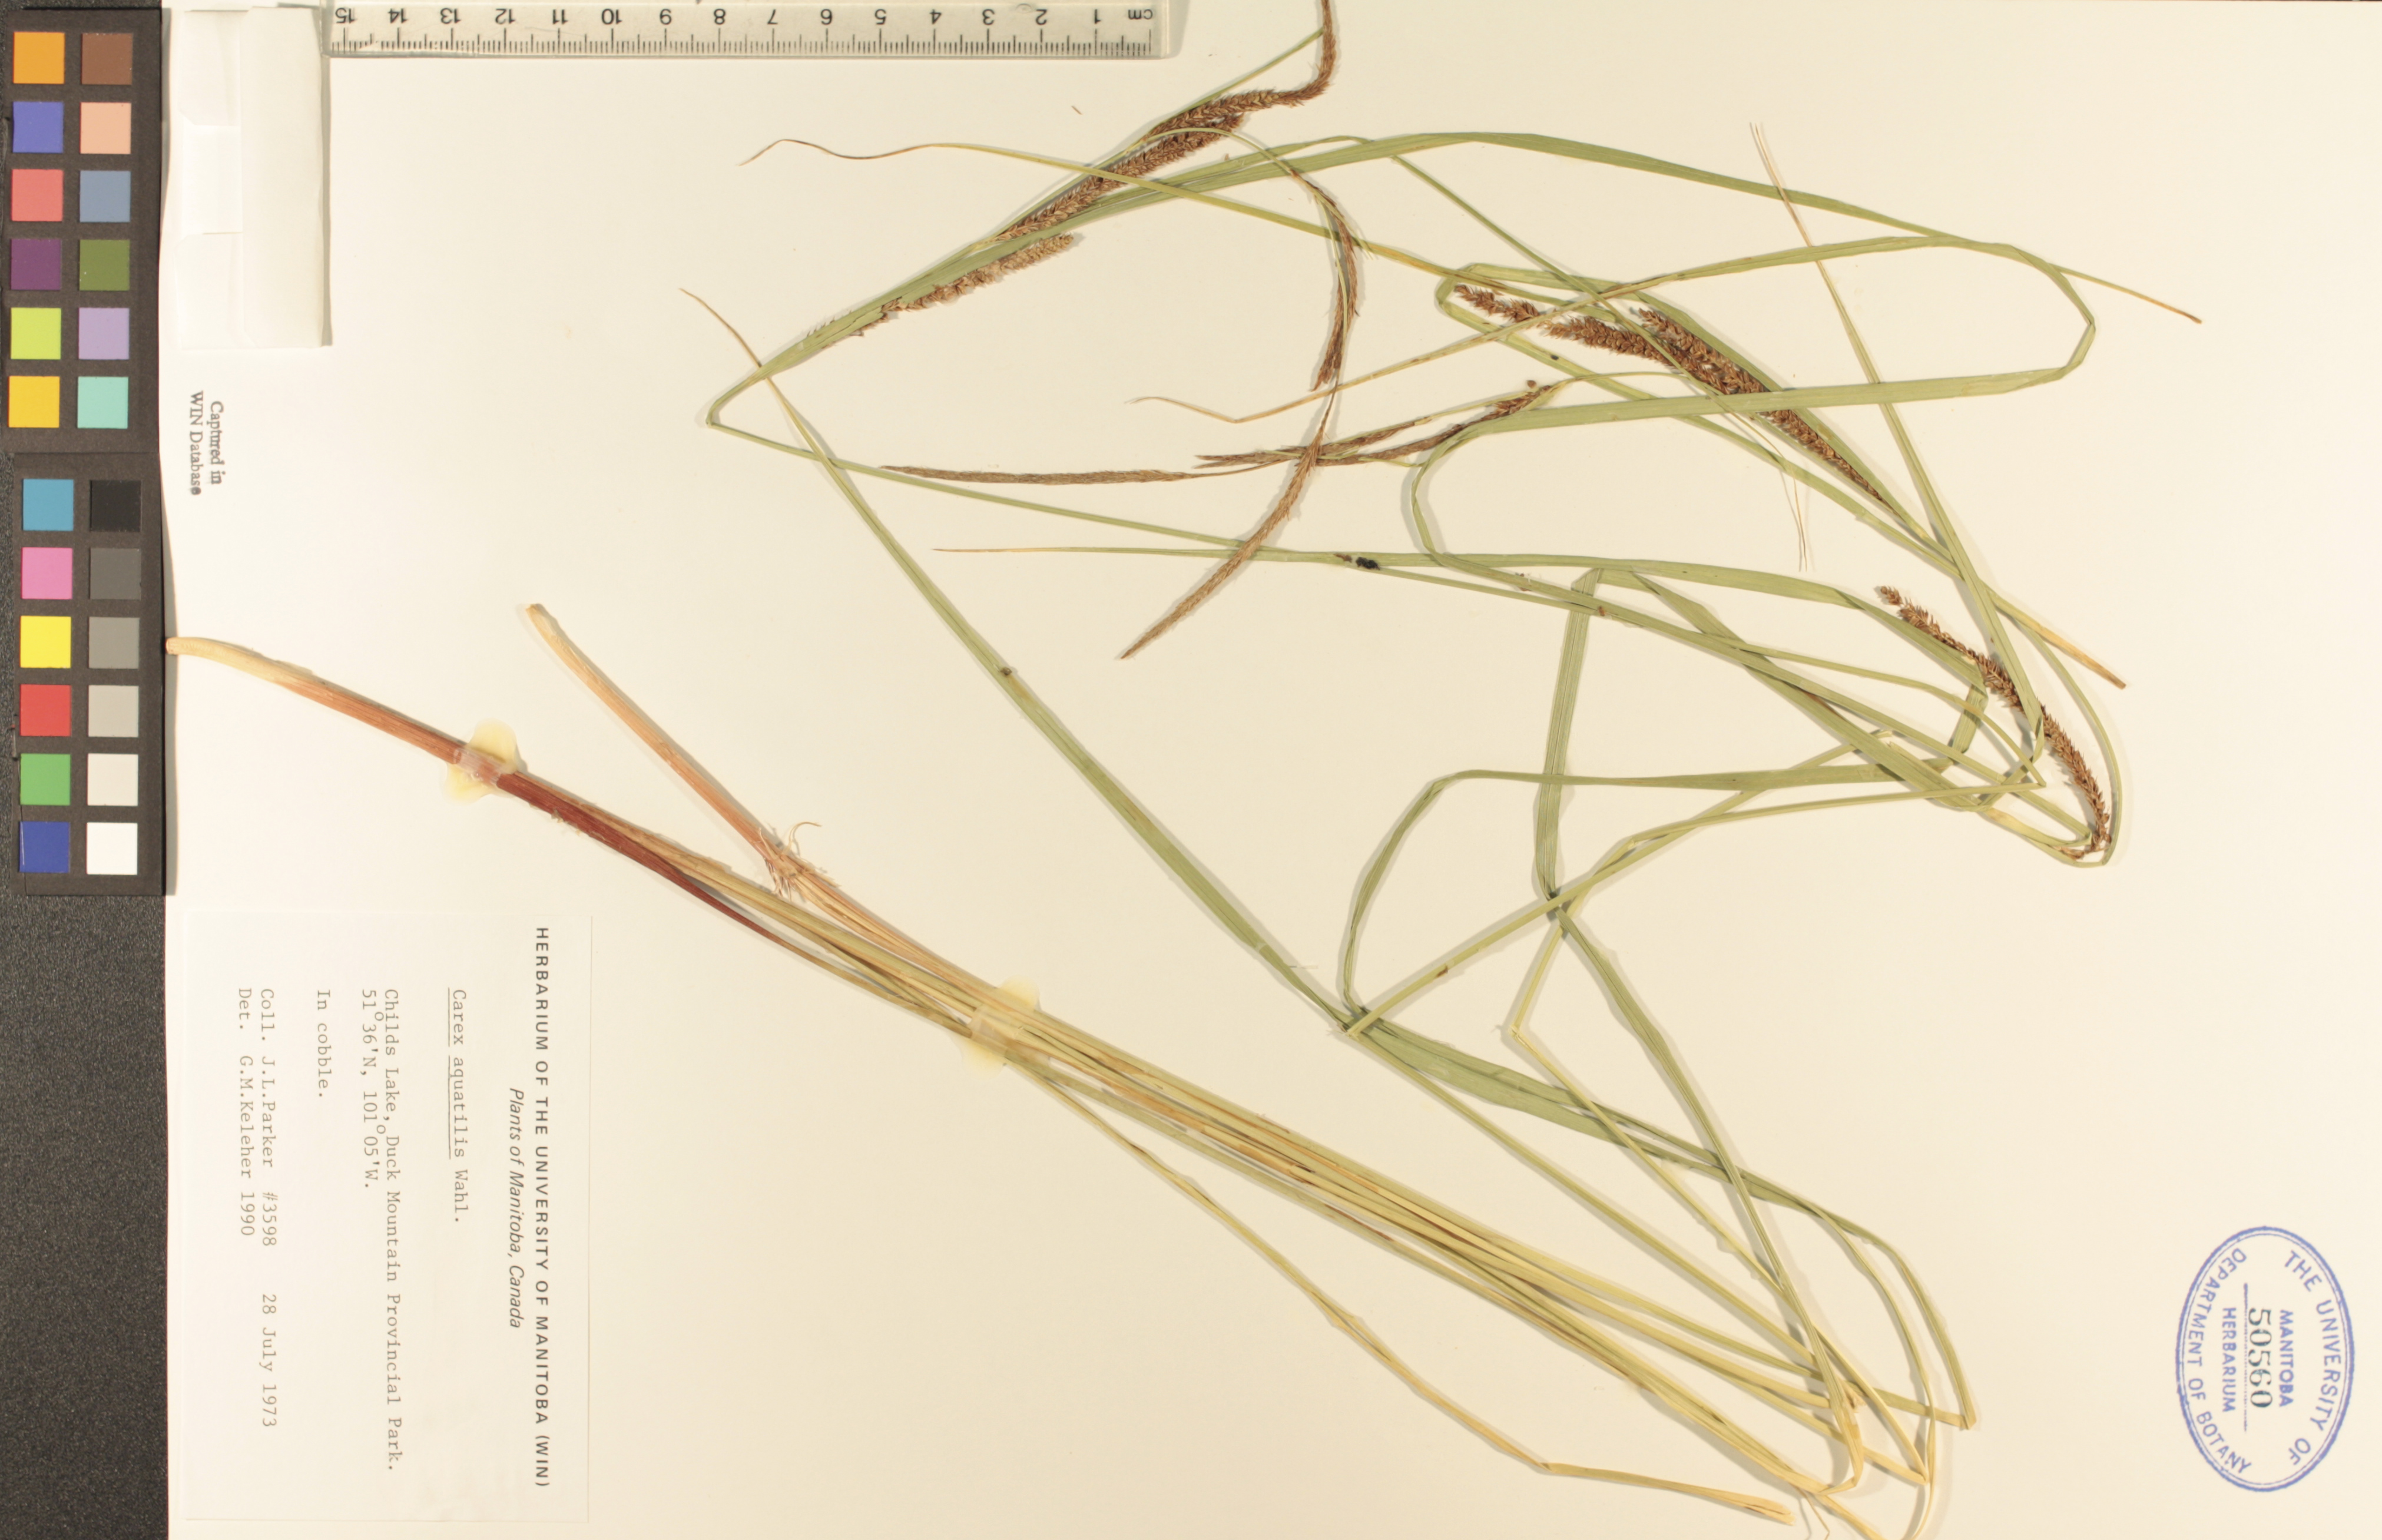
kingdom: Plantae
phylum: Tracheophyta
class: Liliopsida
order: Poales
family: Cyperaceae
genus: Carex
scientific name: Carex aquatilis
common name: Water sedge
